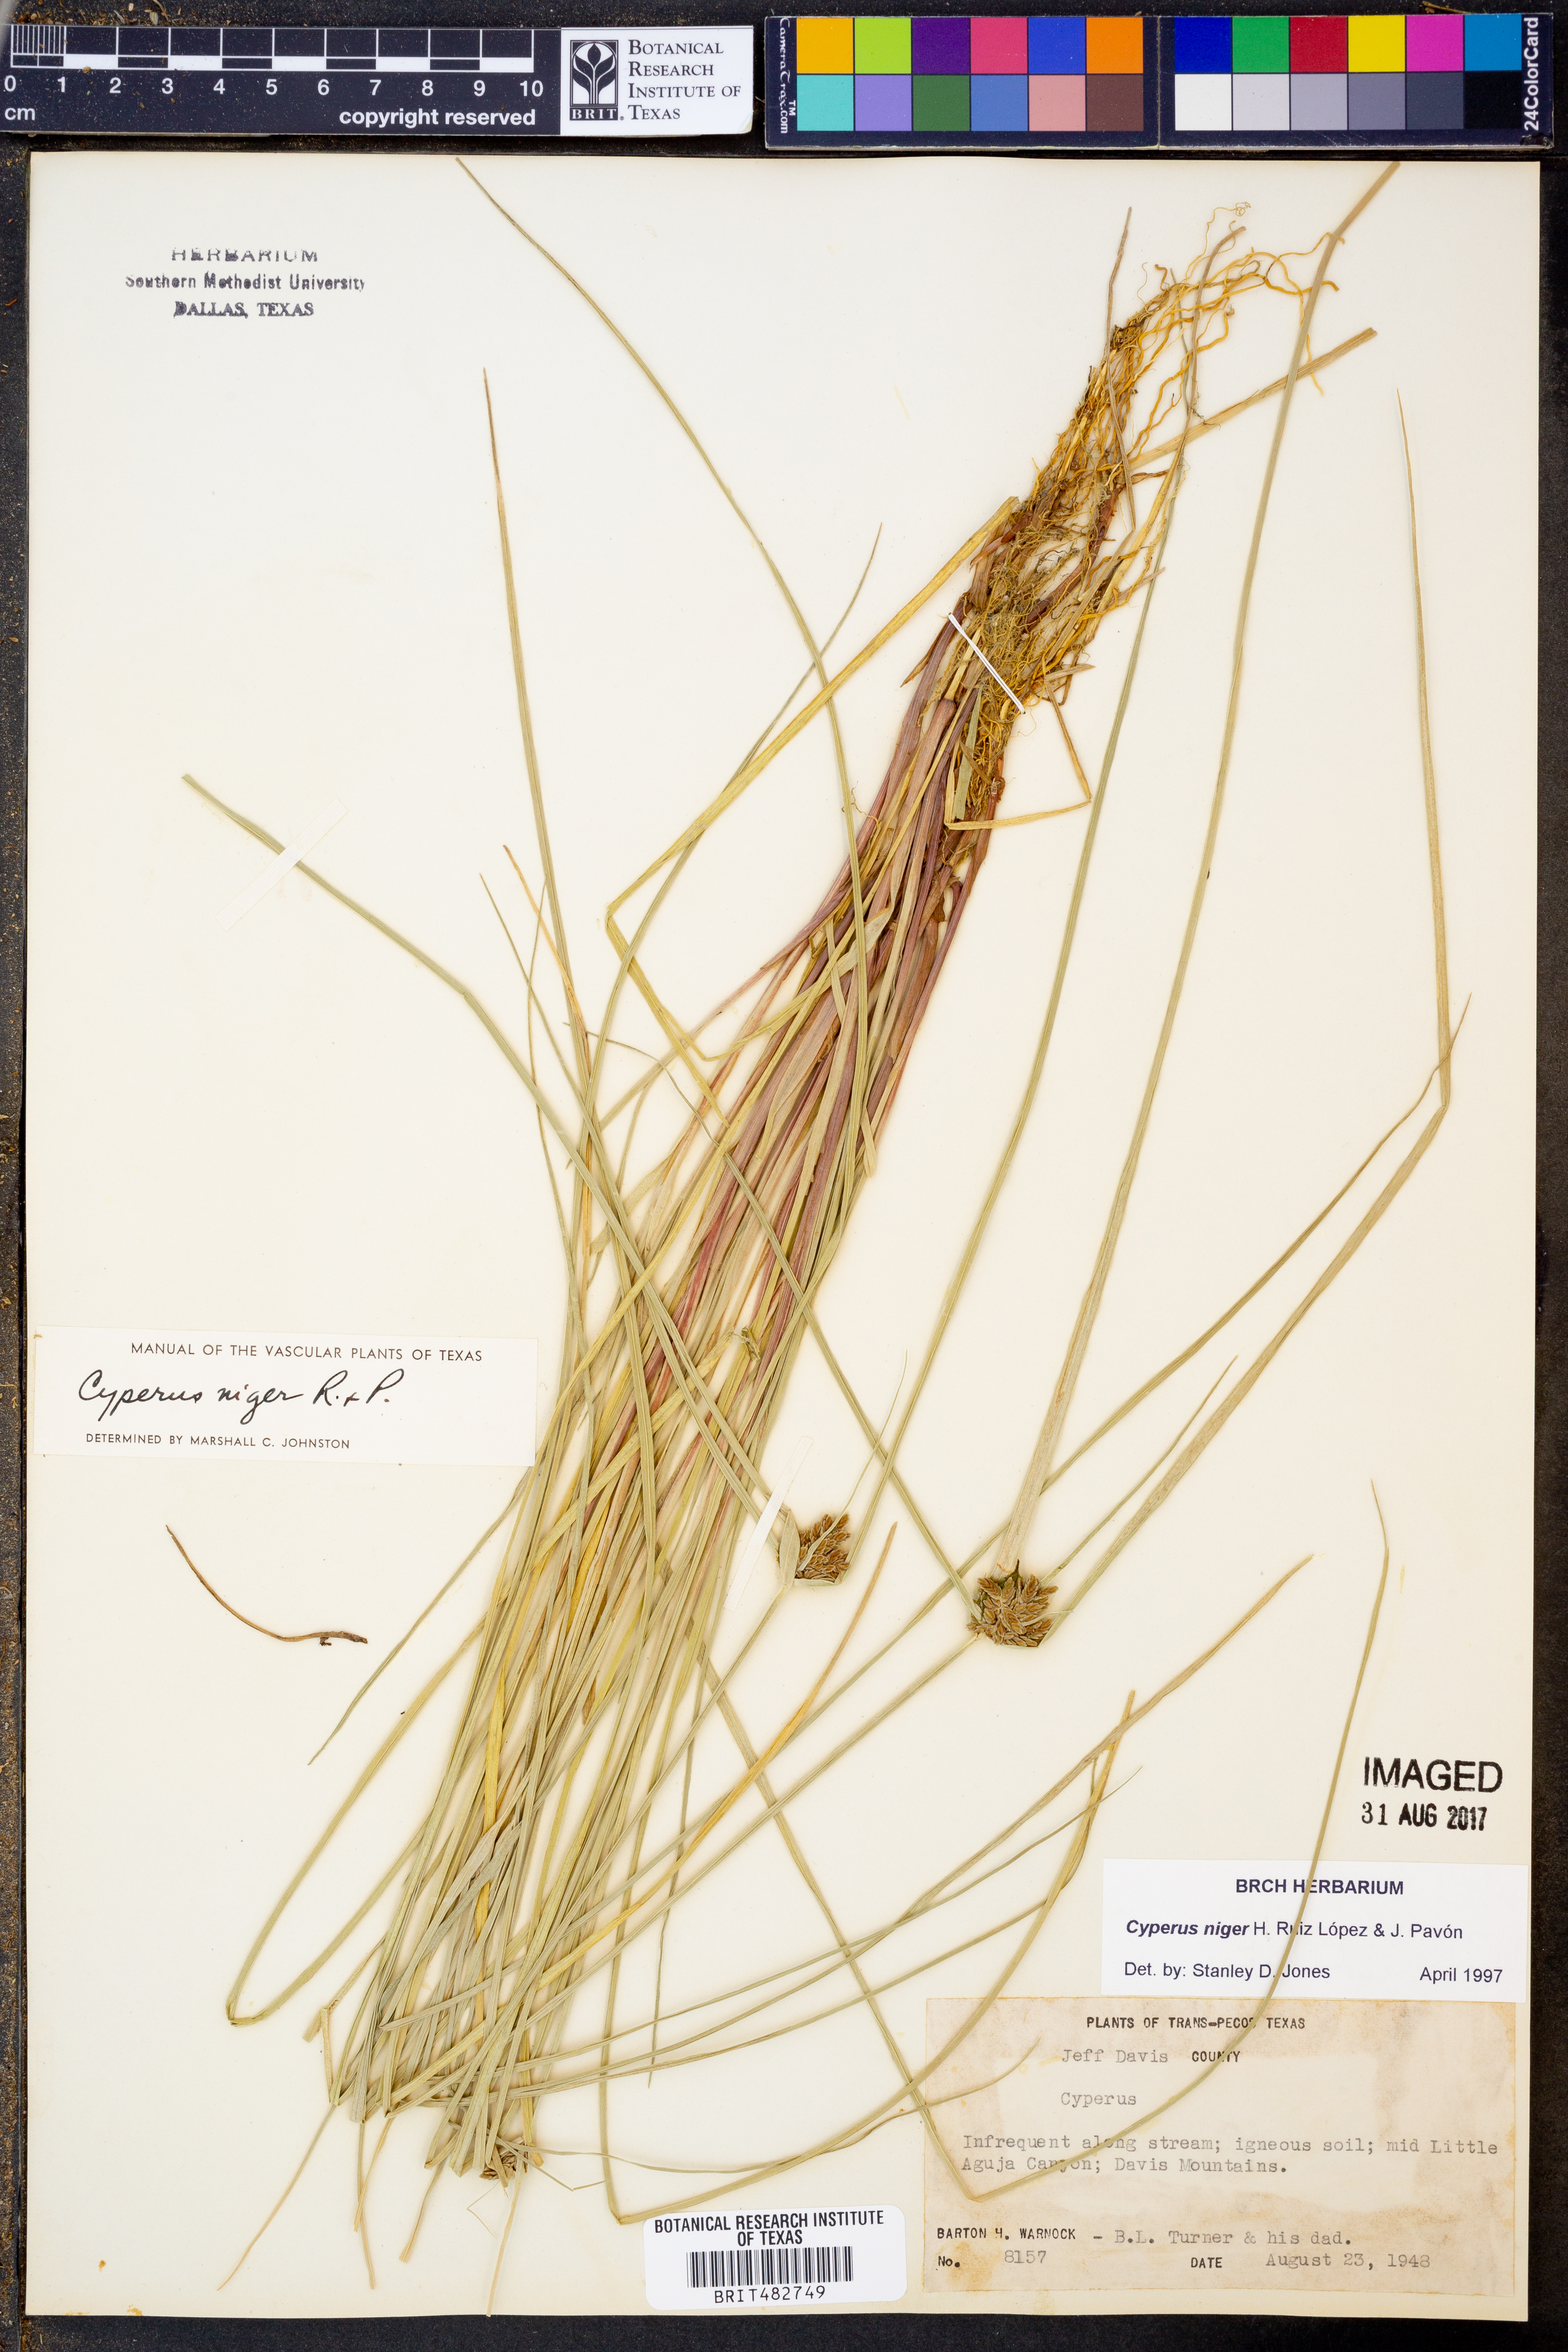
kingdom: Plantae
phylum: Tracheophyta
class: Liliopsida
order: Poales
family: Cyperaceae
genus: Cyperus
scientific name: Cyperus melanostachyus
